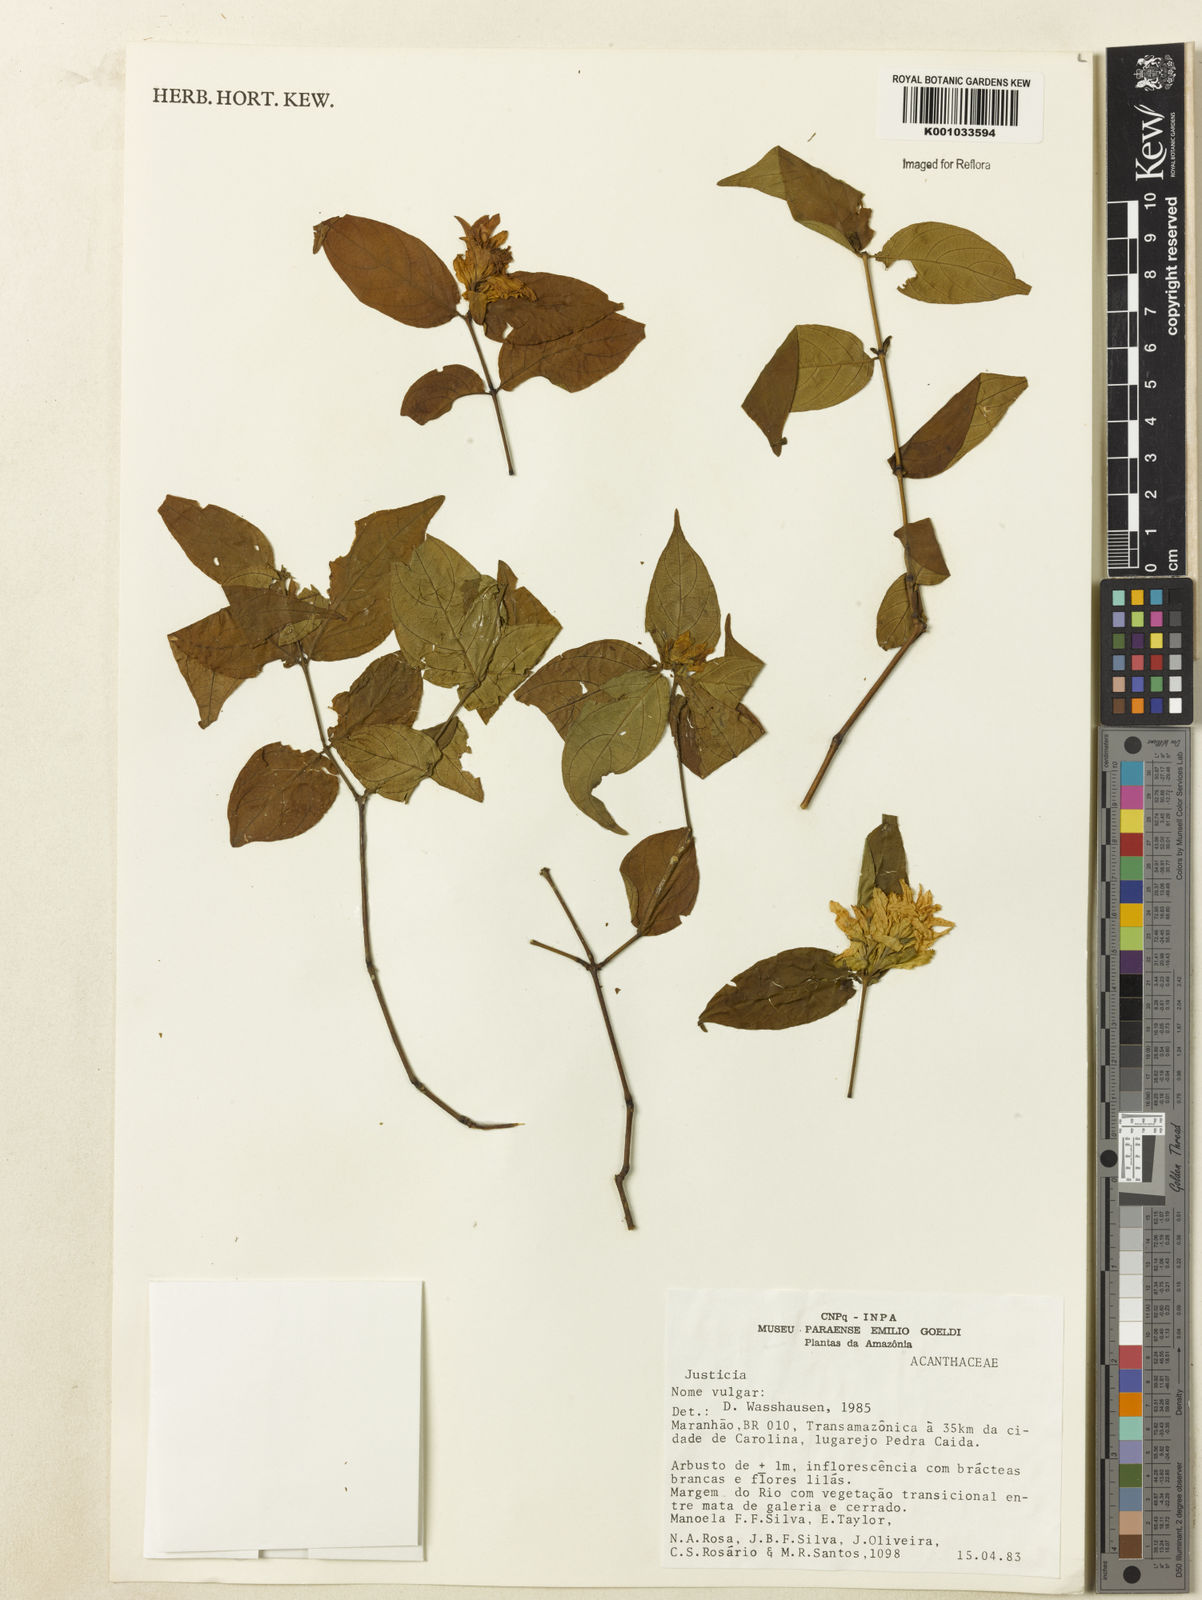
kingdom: Plantae
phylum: Tracheophyta
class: Magnoliopsida
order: Lamiales
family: Acanthaceae
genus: Justicia
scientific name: Justicia
